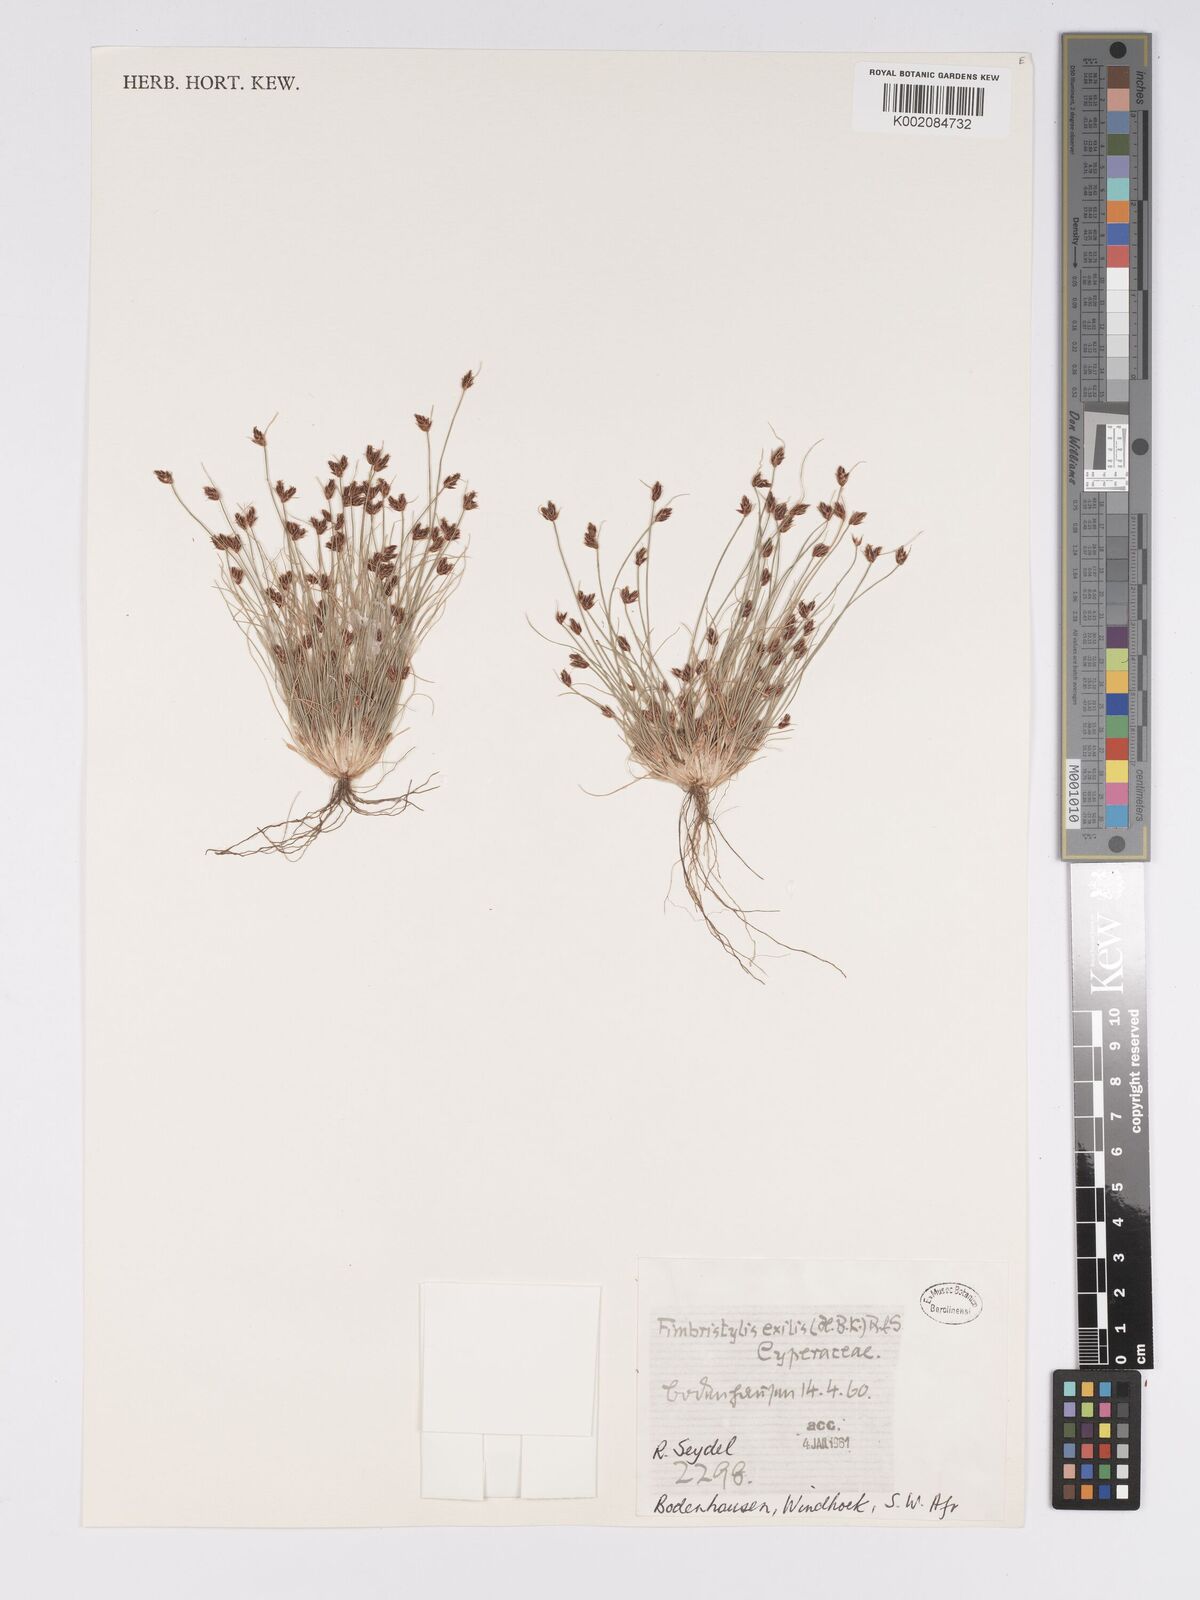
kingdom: Plantae
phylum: Tracheophyta
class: Liliopsida
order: Poales
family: Cyperaceae
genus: Bulbostylis
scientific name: Bulbostylis hispidula
